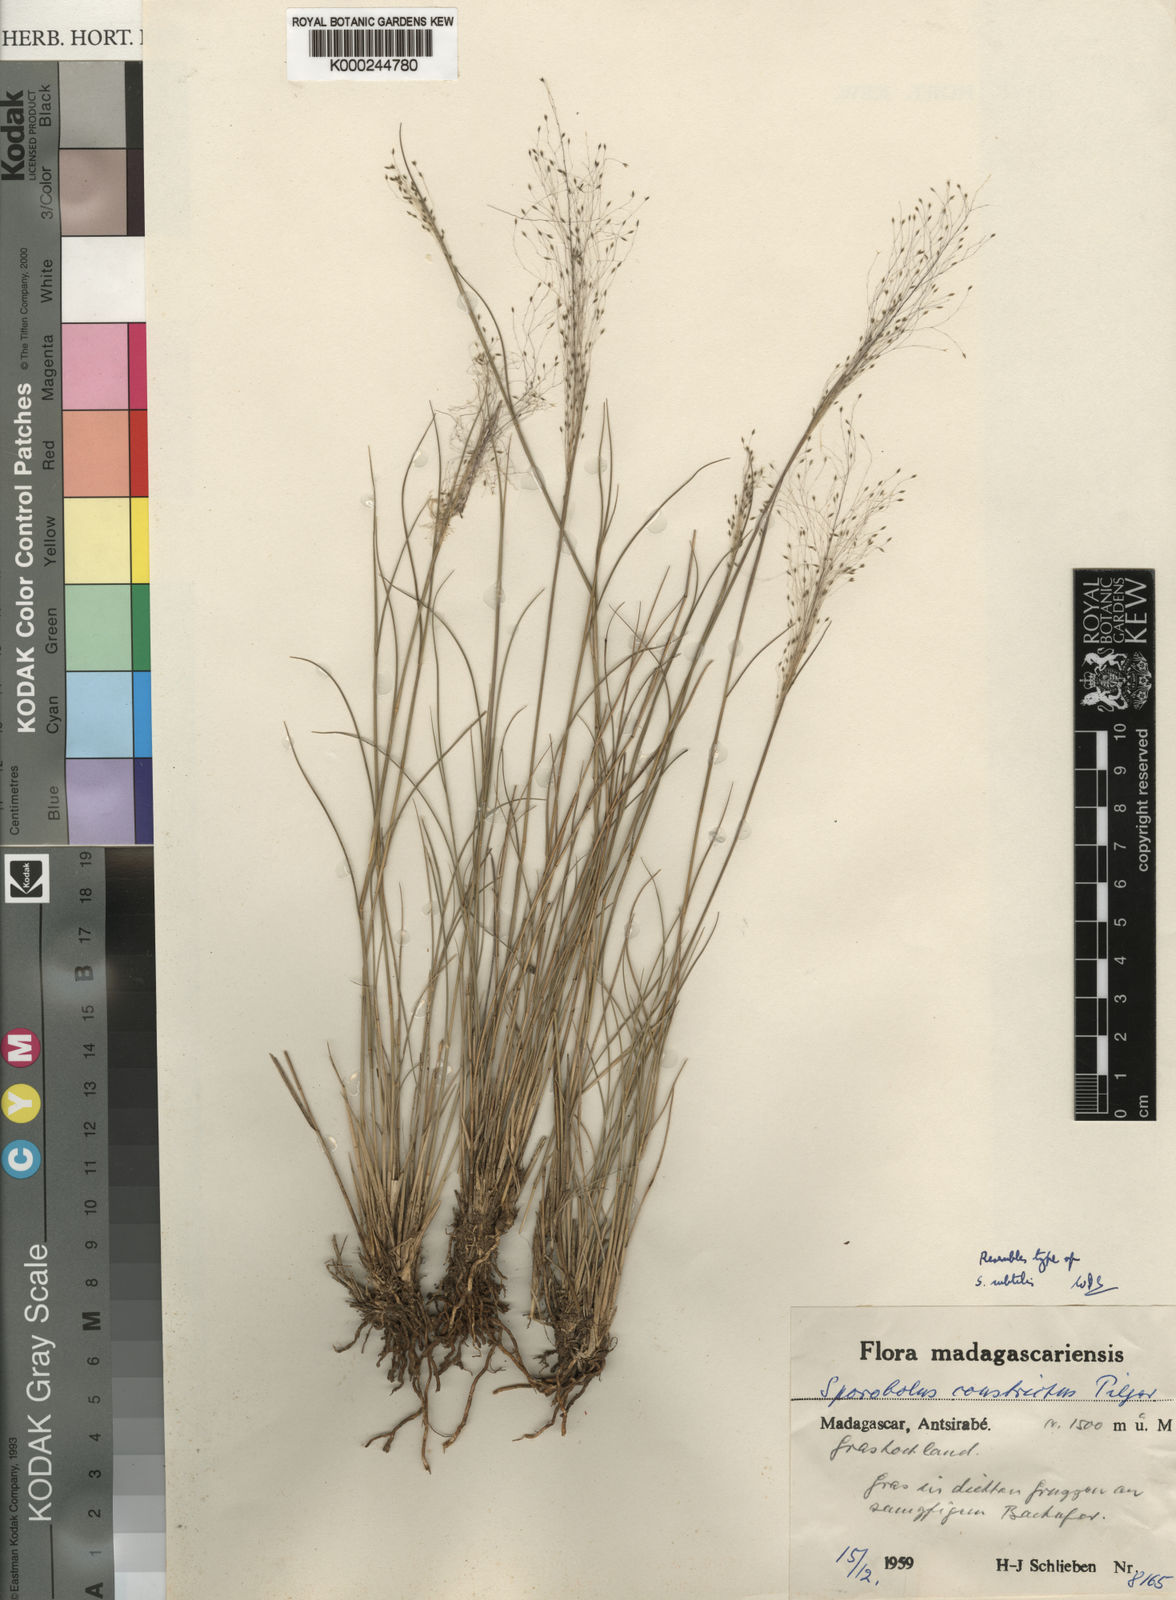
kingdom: Plantae
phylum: Tracheophyta
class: Liliopsida
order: Poales
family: Poaceae
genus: Sporobolus
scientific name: Sporobolus subtilis
